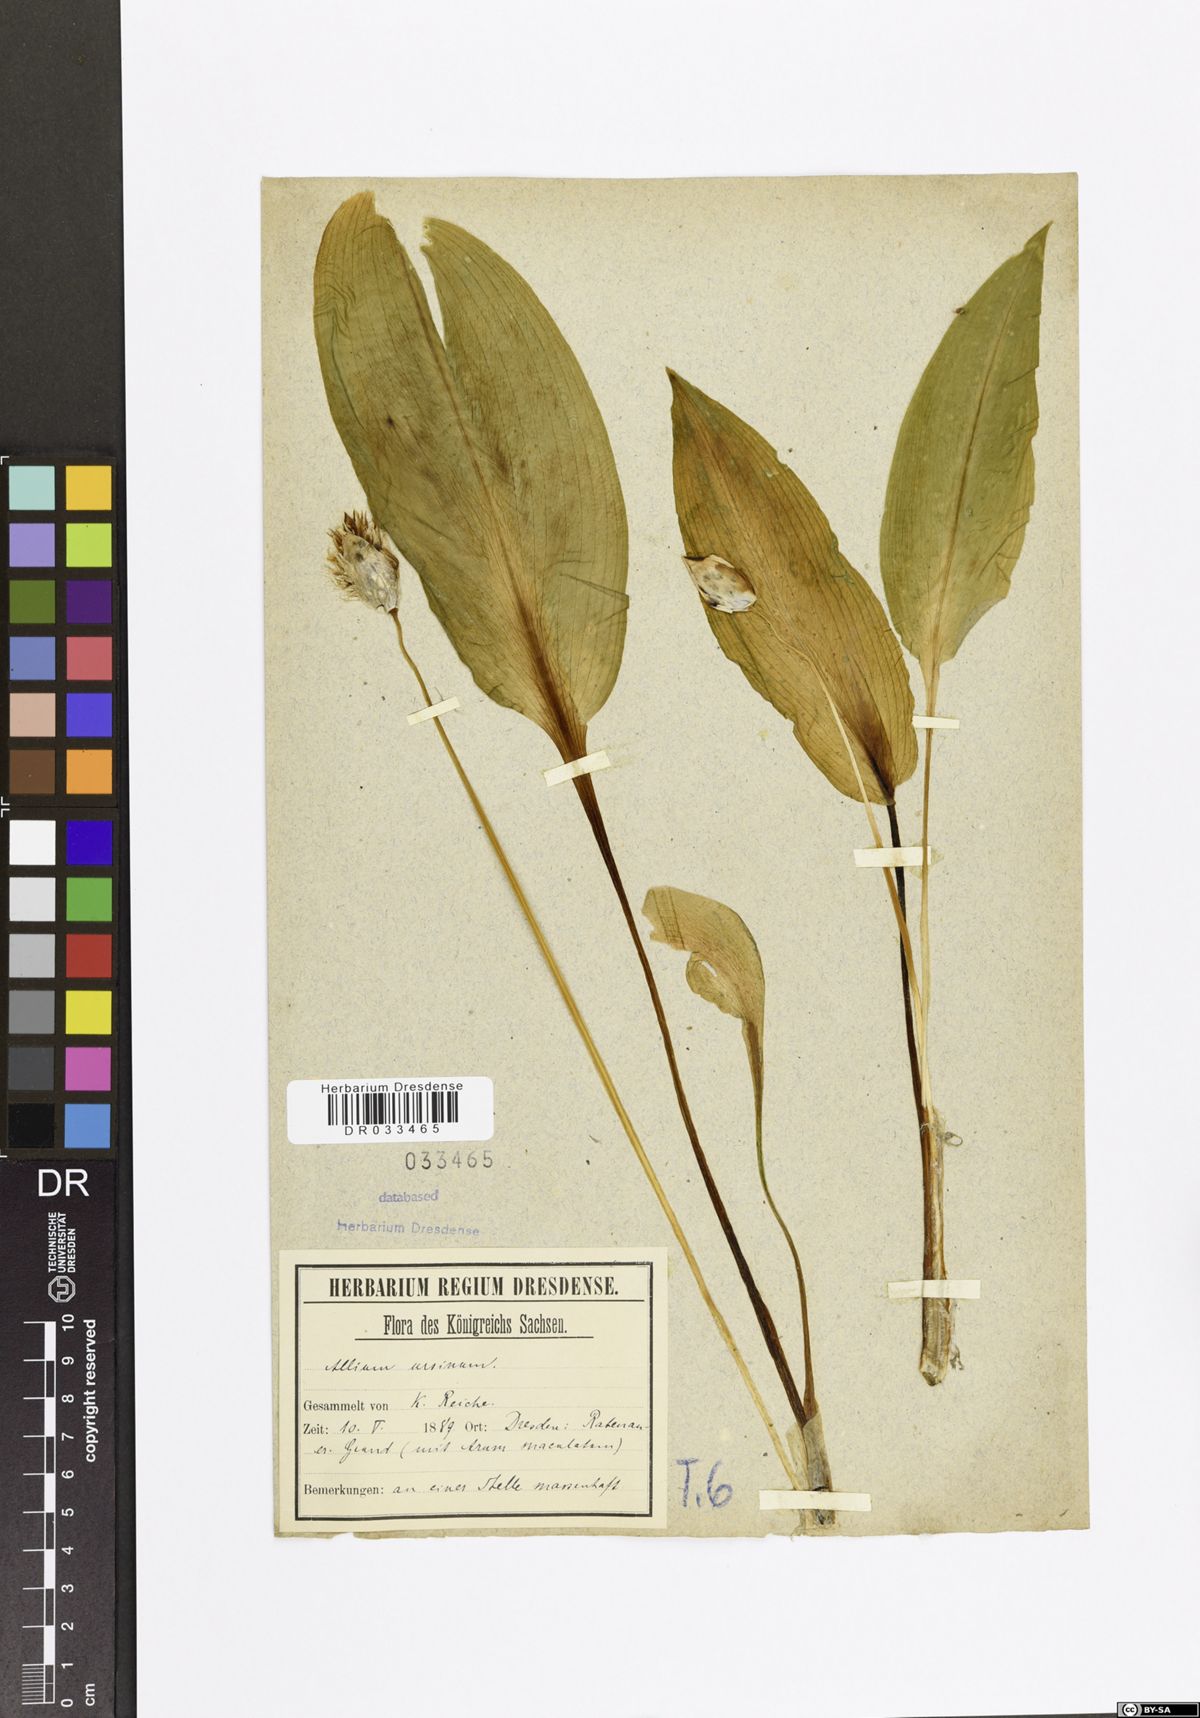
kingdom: Plantae
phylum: Tracheophyta
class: Liliopsida
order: Asparagales
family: Amaryllidaceae
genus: Allium
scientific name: Allium ursinum
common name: Ramsons
